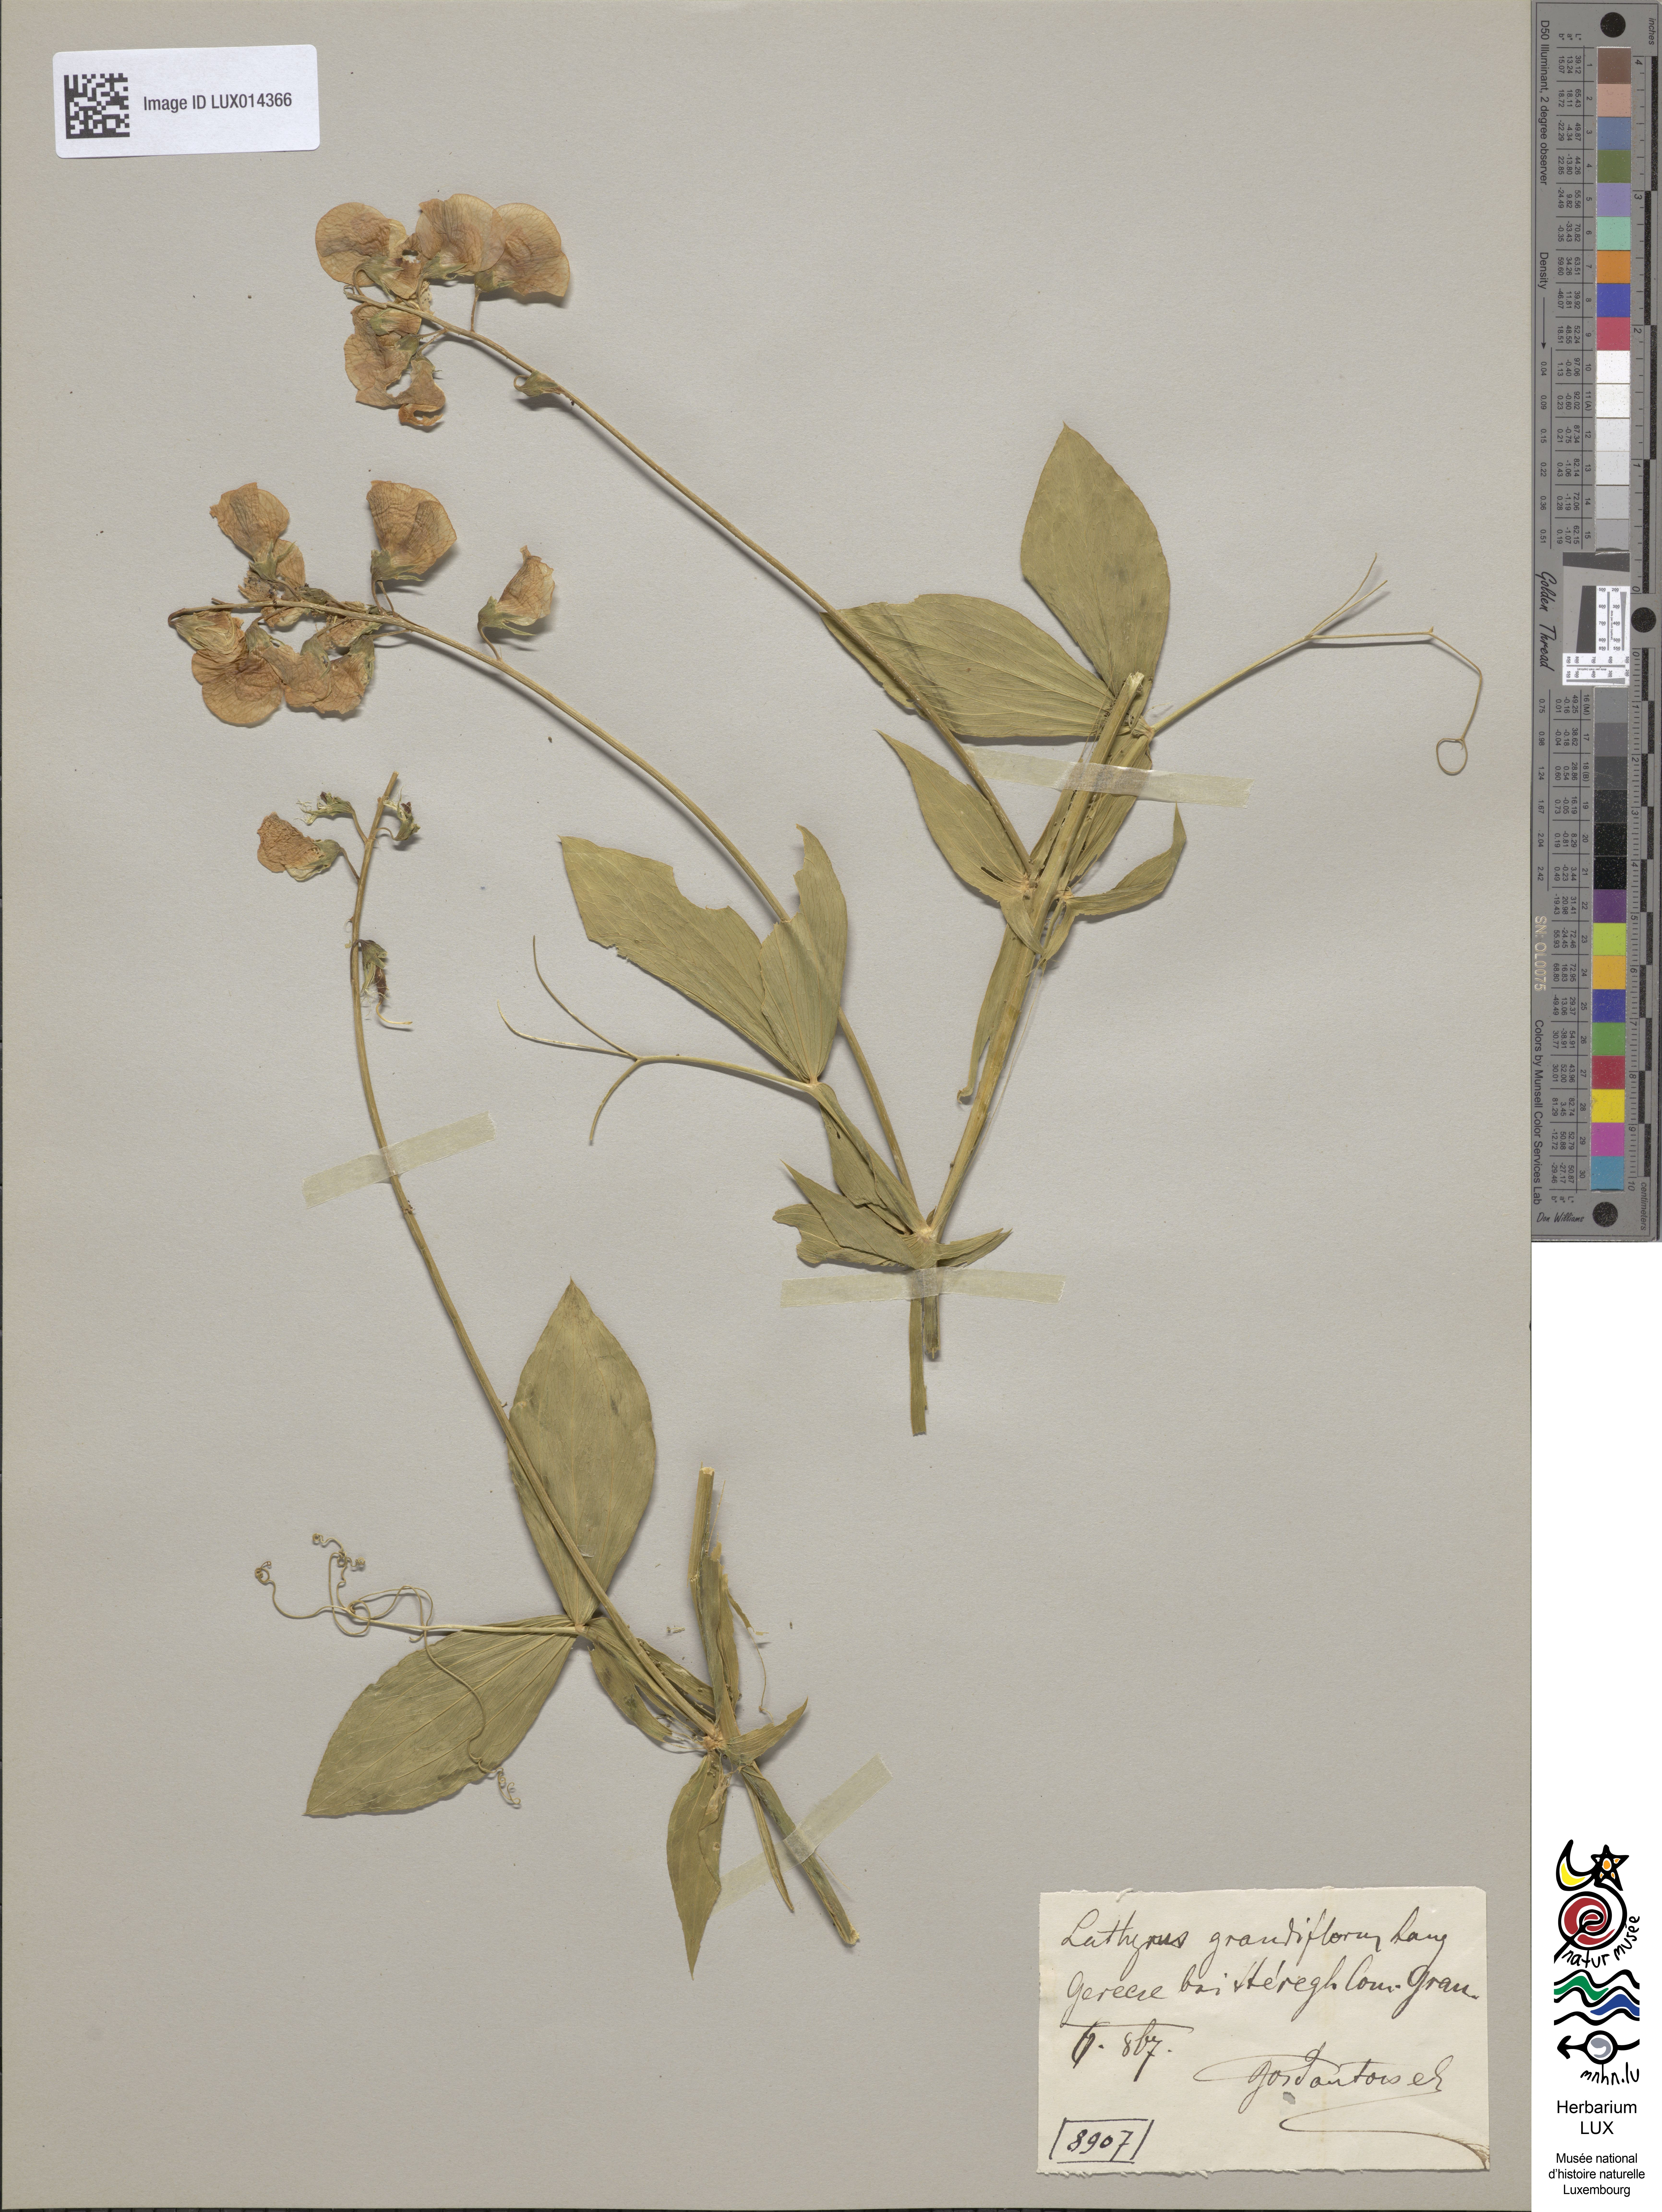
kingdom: Plantae
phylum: Tracheophyta
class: Magnoliopsida
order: Fabales
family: Fabaceae
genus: Lathyrus
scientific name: Lathyrus latifolius
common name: Perennial pea
